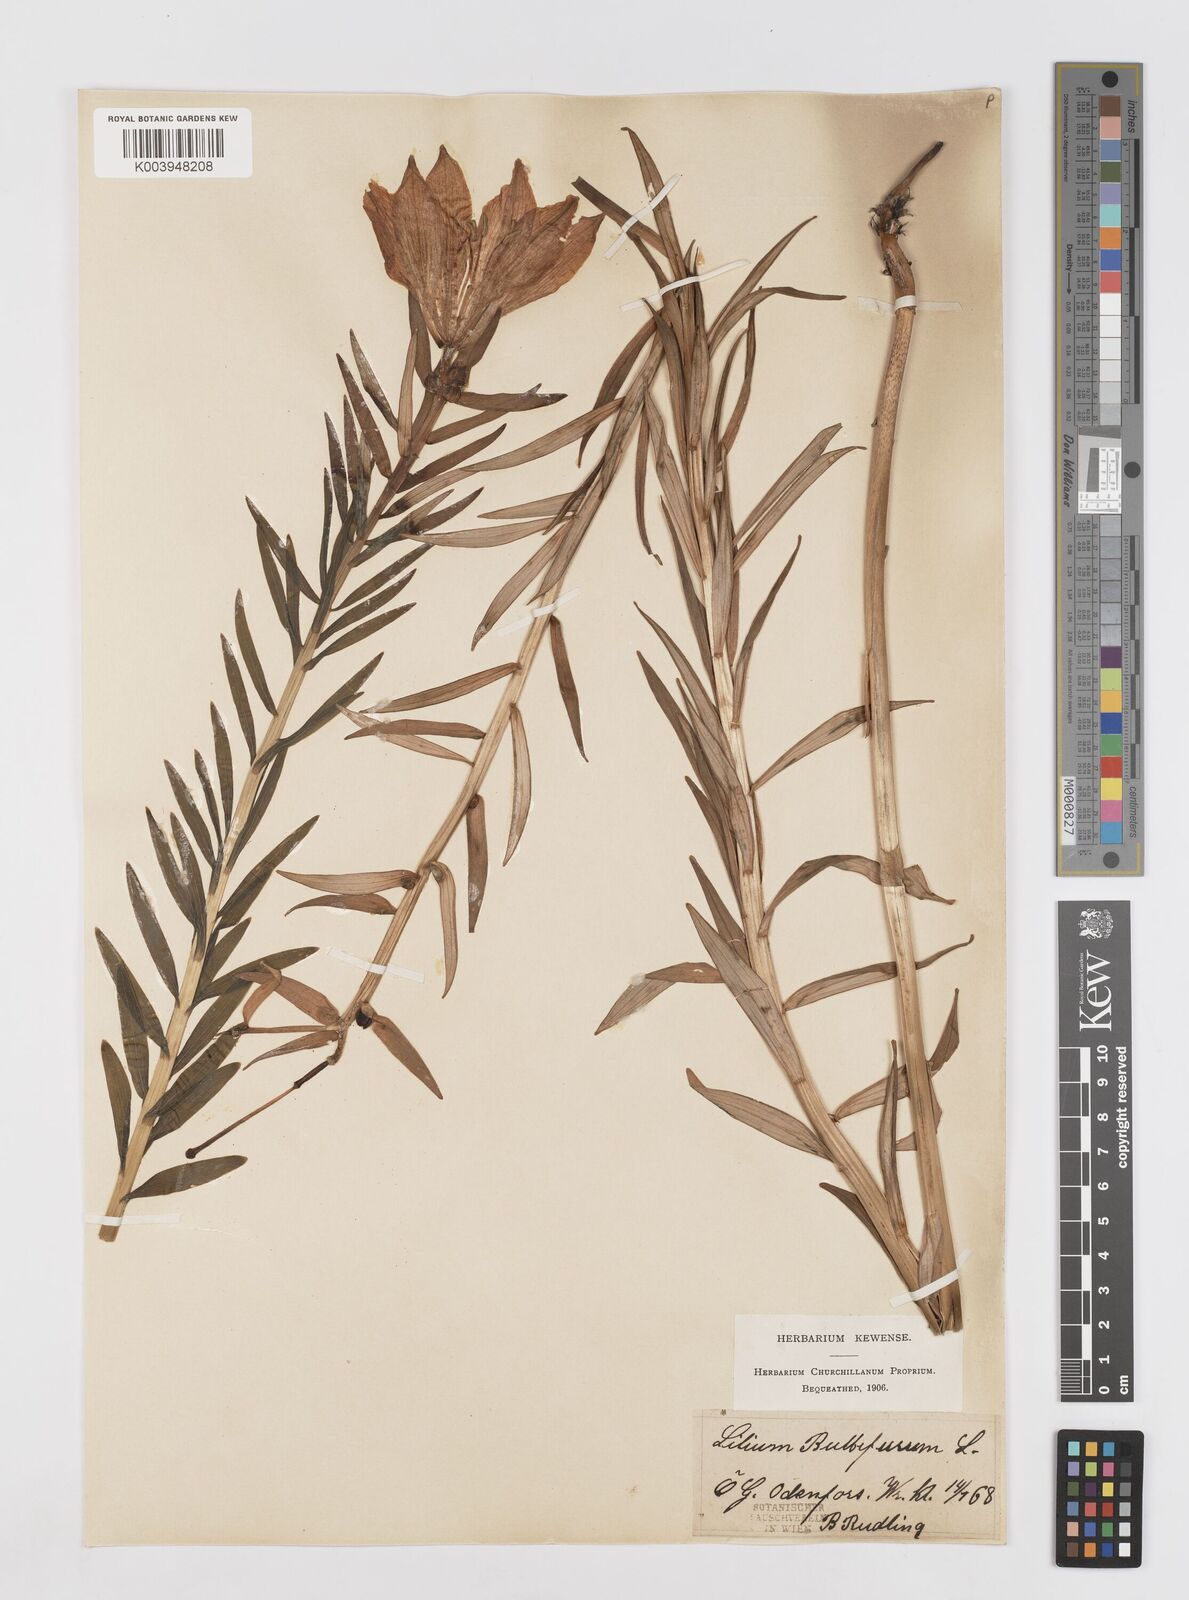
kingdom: Plantae
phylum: Tracheophyta
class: Liliopsida
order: Liliales
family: Liliaceae
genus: Lilium
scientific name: Lilium bulbiferum
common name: Orange lily
